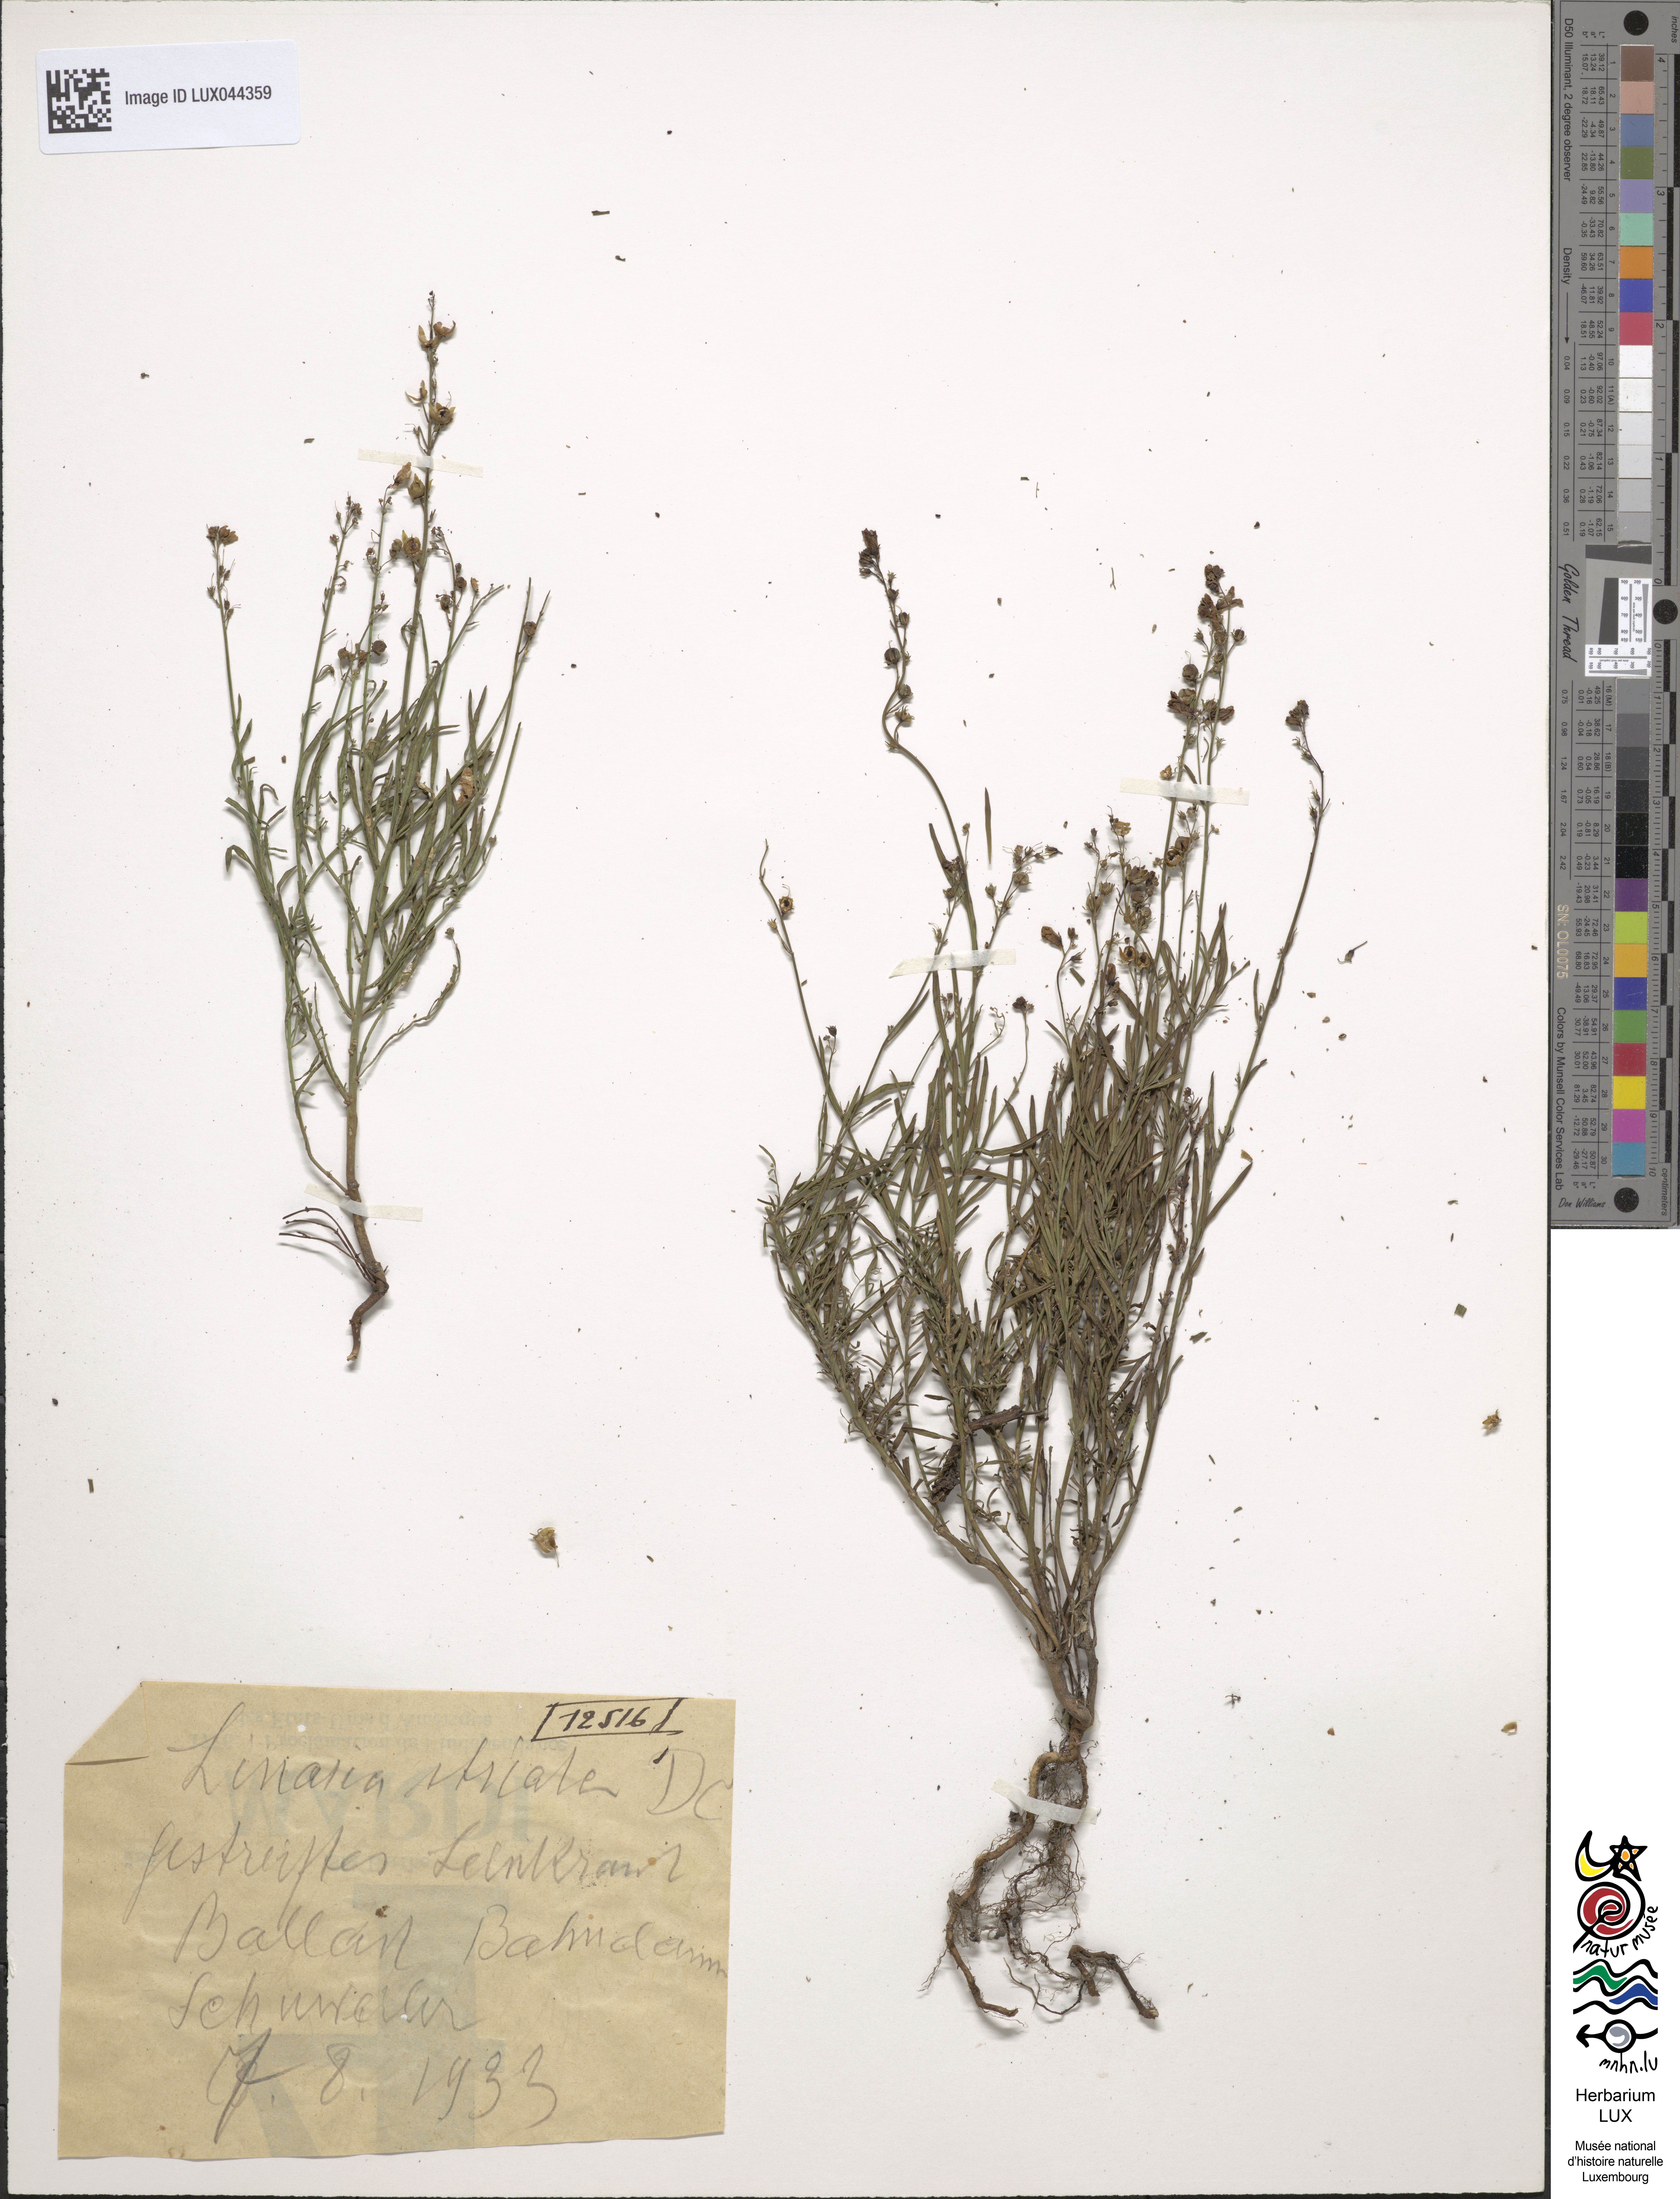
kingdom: Plantae
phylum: Tracheophyta
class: Magnoliopsida
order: Lamiales
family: Plantaginaceae
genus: Linaria
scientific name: Linaria repens
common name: Pale toadflax
